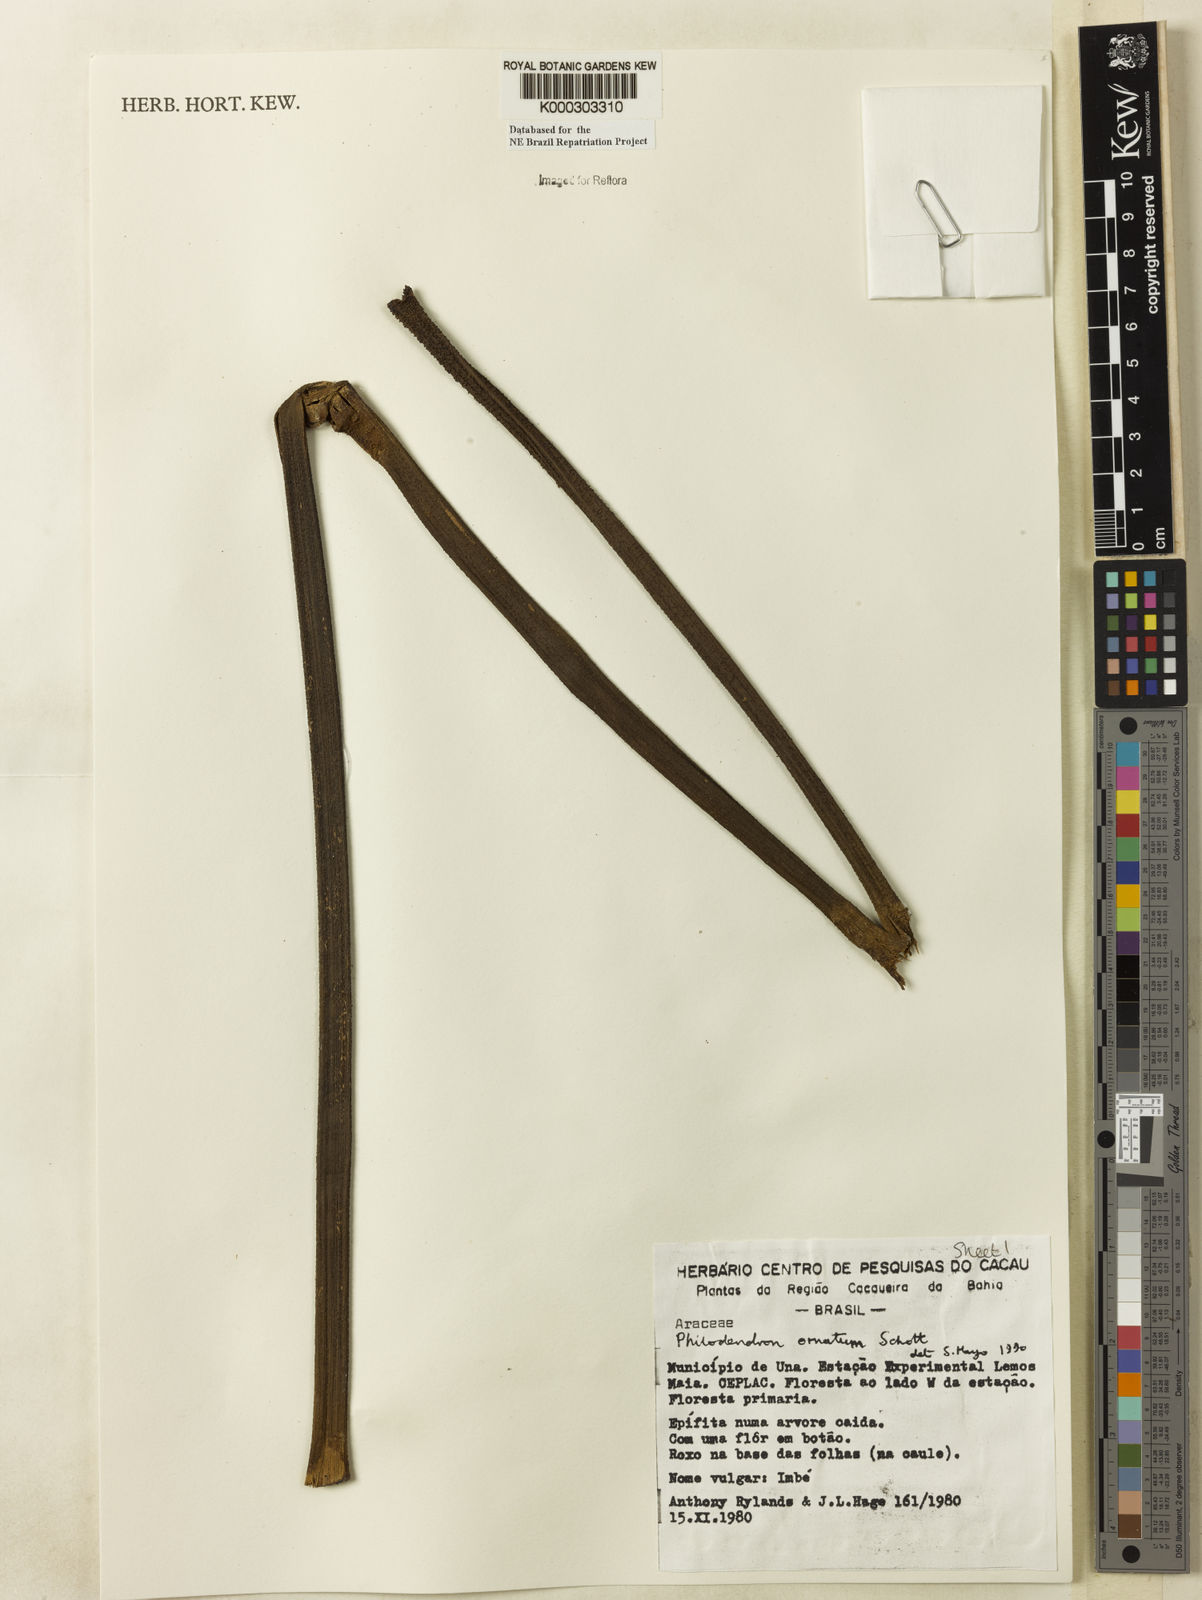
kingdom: Plantae
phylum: Tracheophyta
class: Liliopsida
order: Alismatales
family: Araceae
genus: Philodendron
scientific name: Philodendron ornatum
